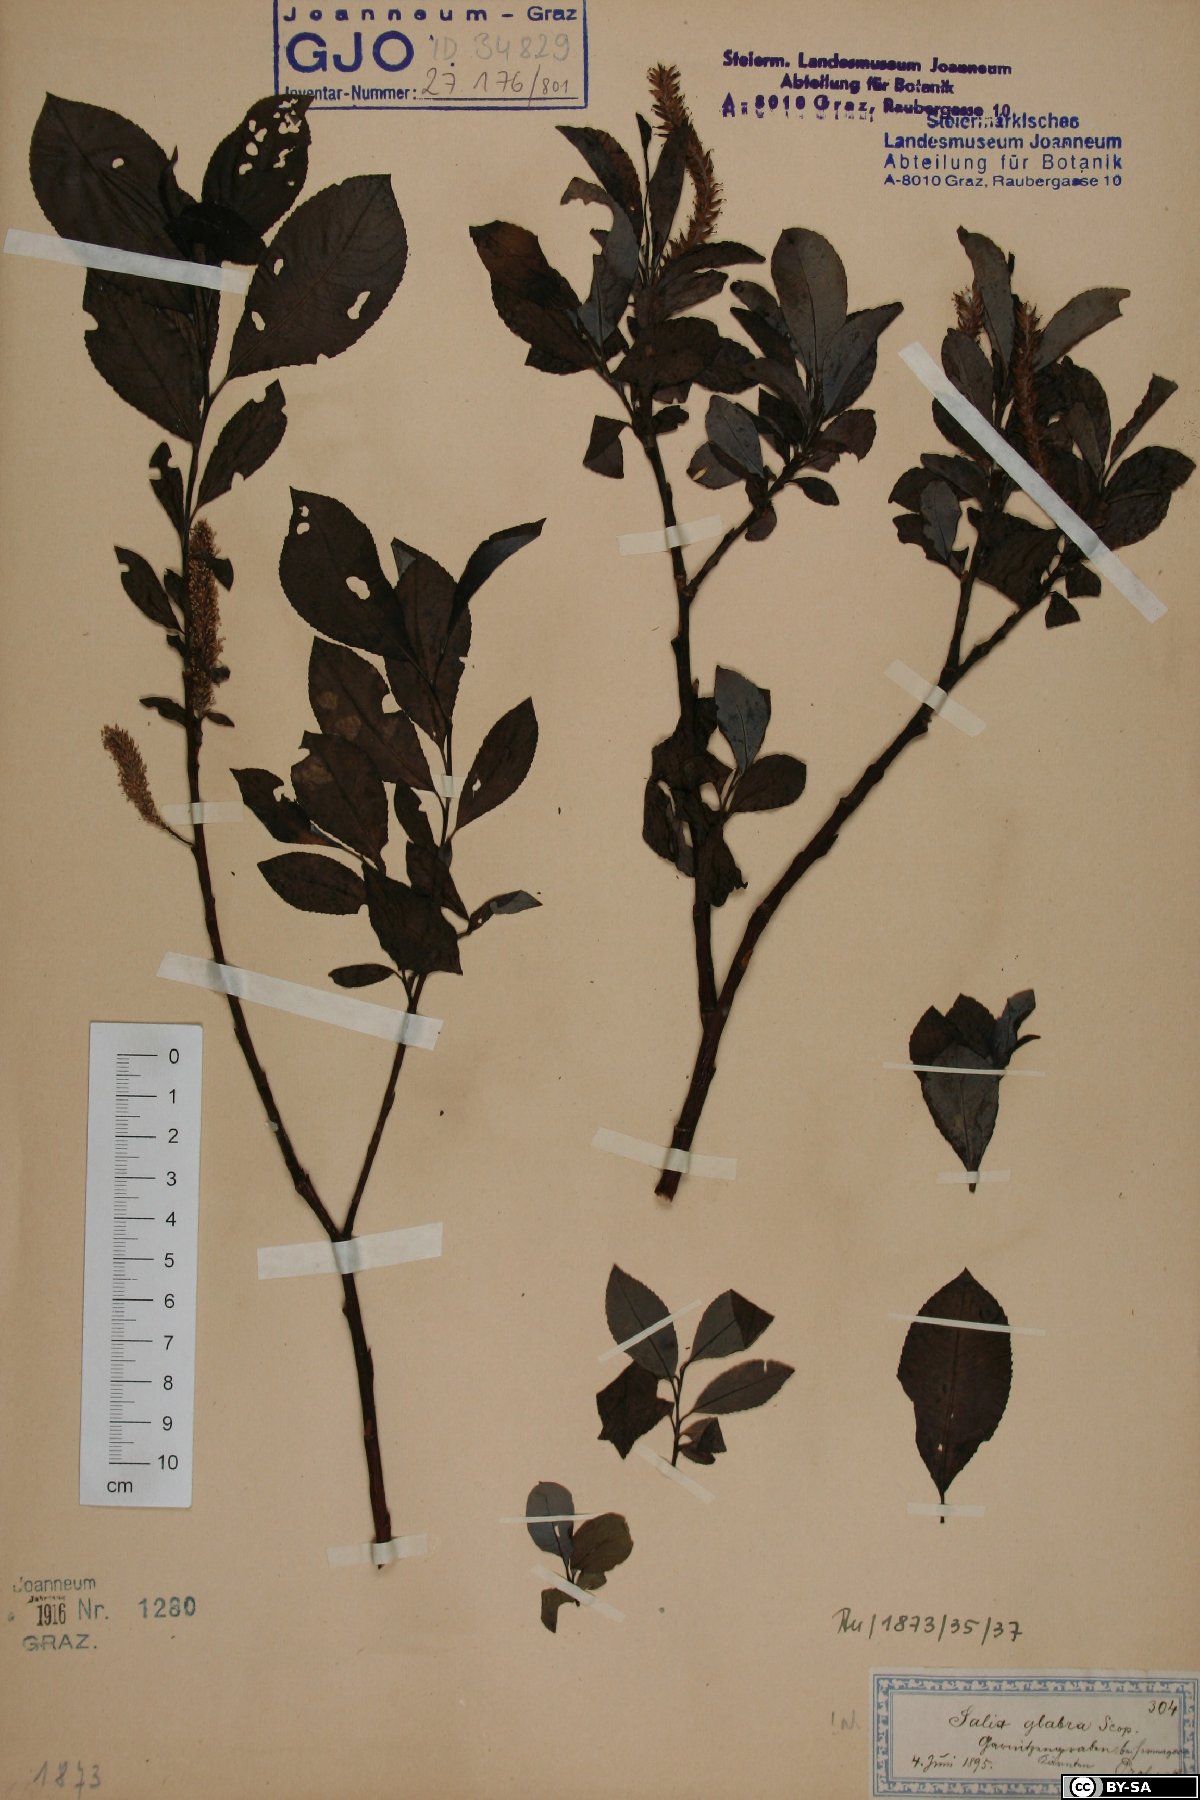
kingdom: Plantae
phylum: Tracheophyta
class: Magnoliopsida
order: Malpighiales
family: Salicaceae
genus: Salix
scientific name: Salix glabra
